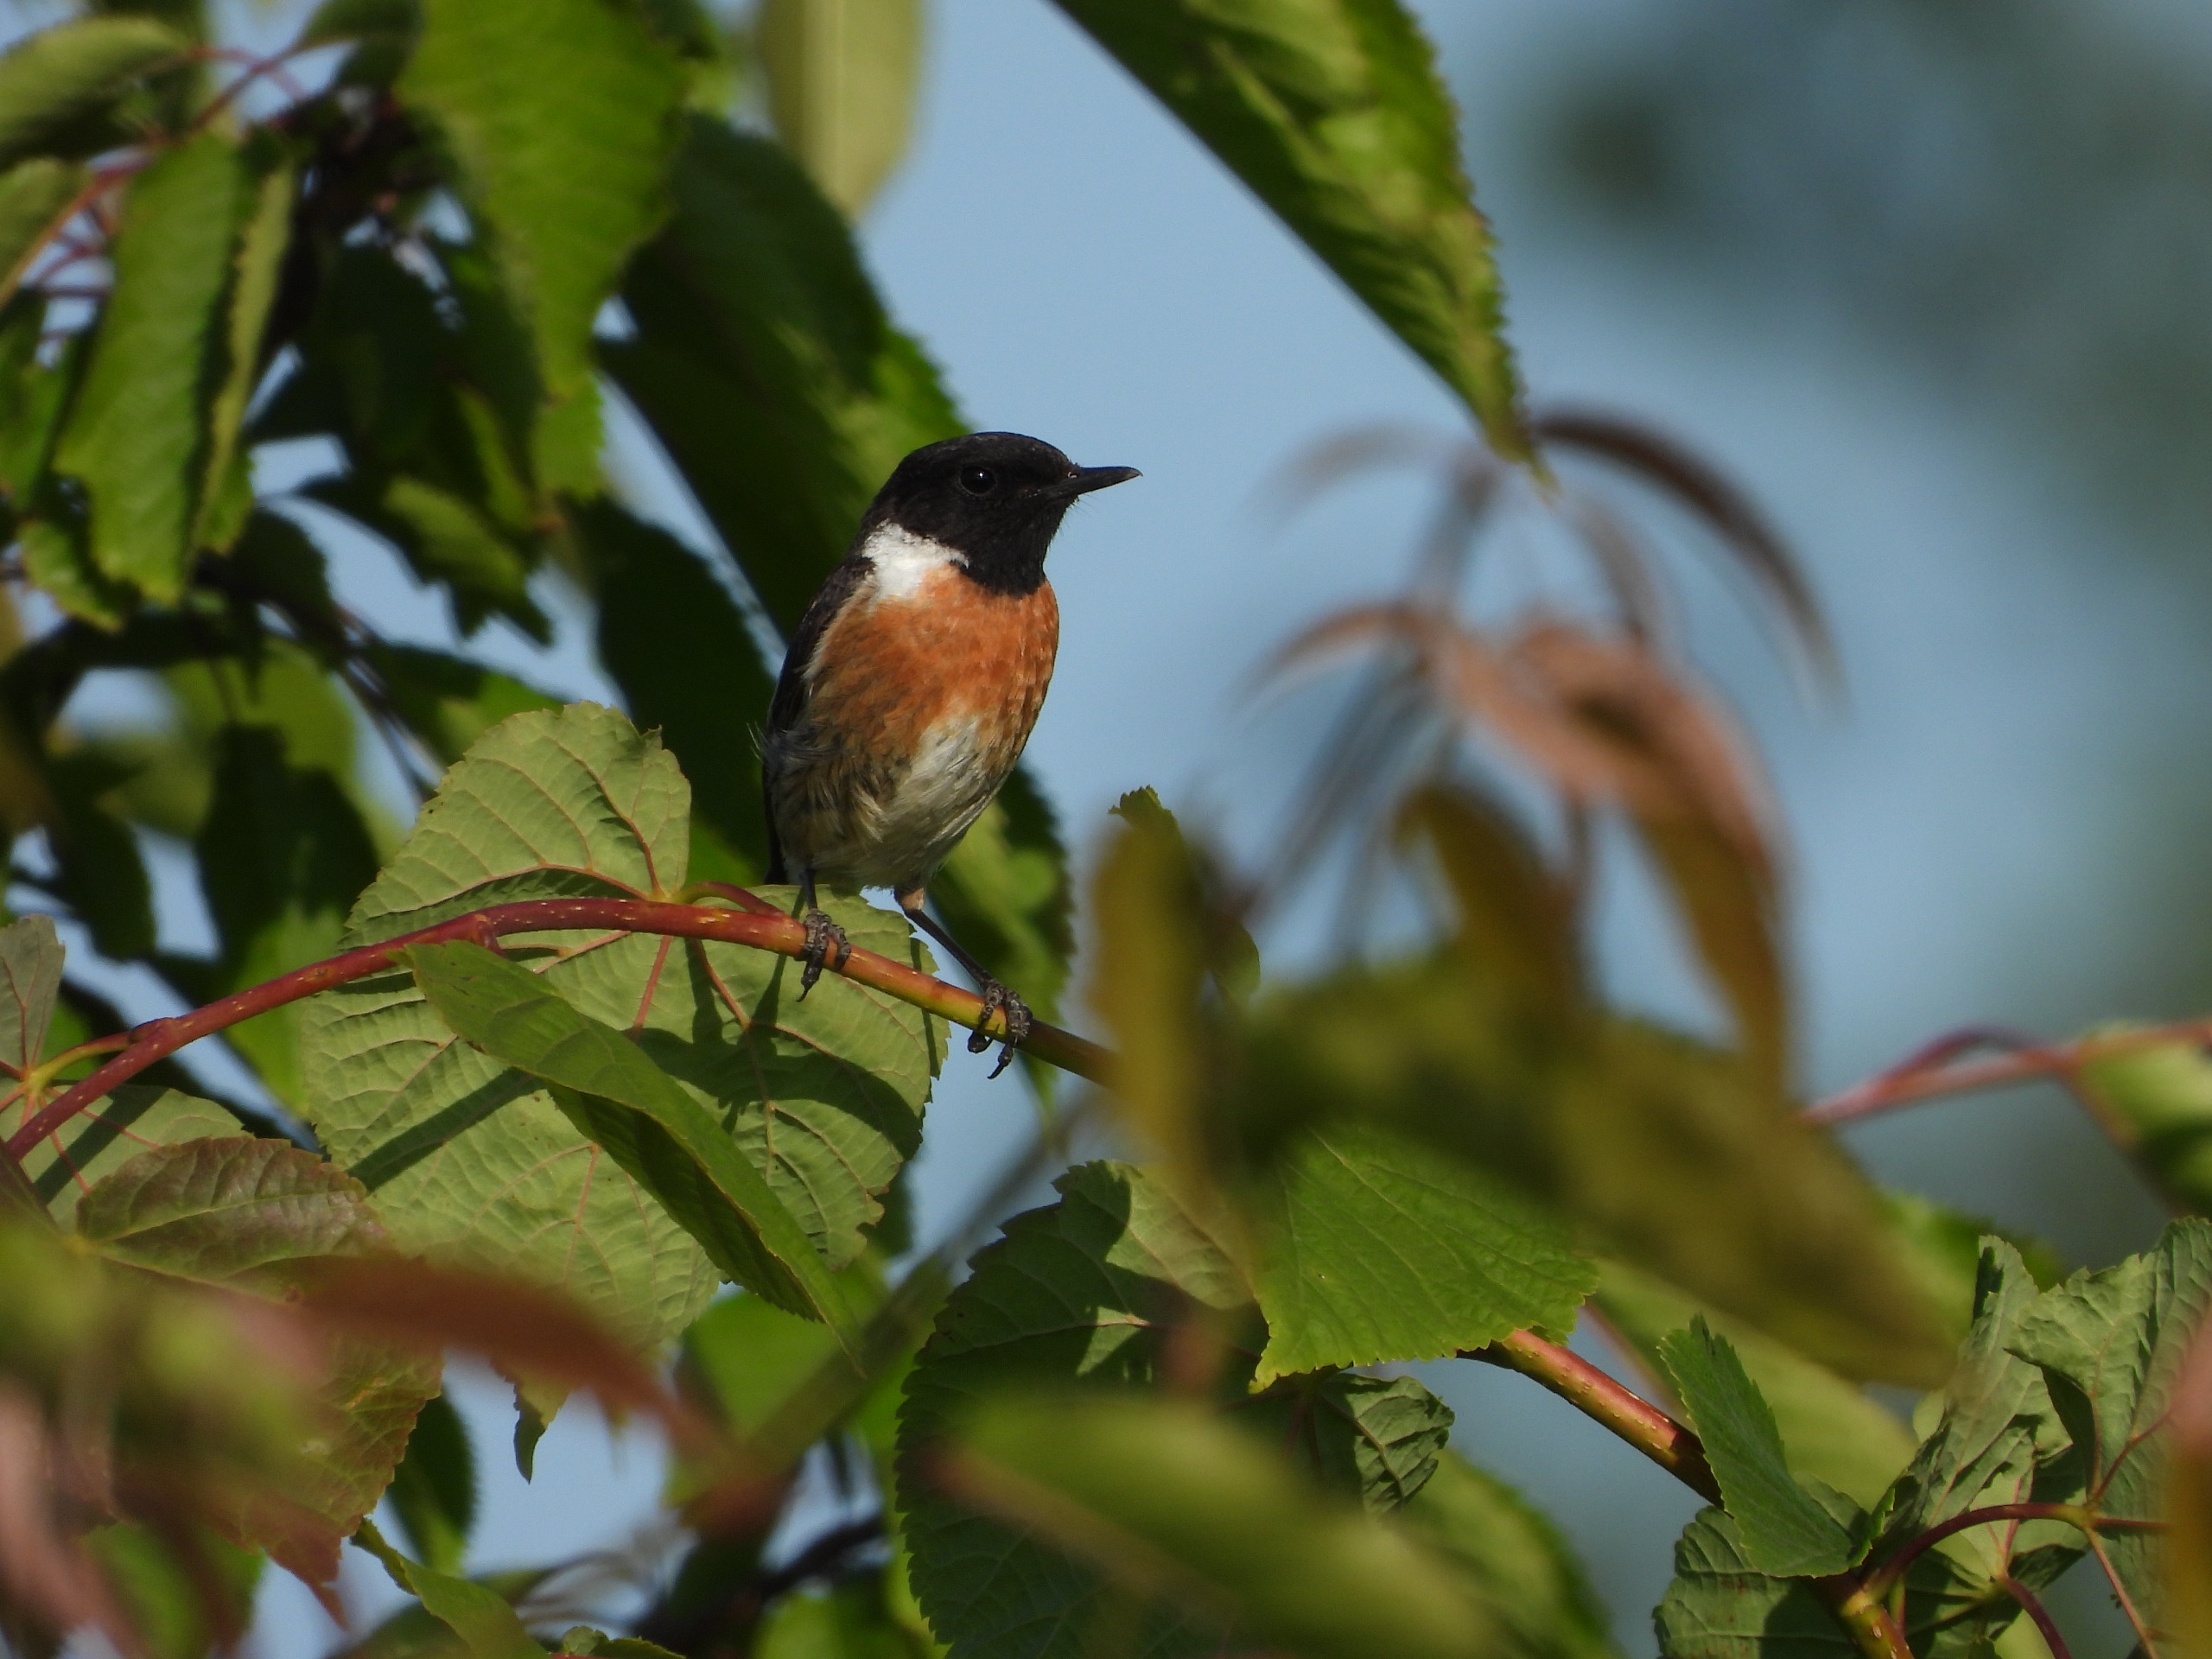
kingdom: Animalia
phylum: Chordata
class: Aves
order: Passeriformes
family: Muscicapidae
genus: Saxicola
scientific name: Saxicola rubicola
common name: Sortstrubet bynkefugl
